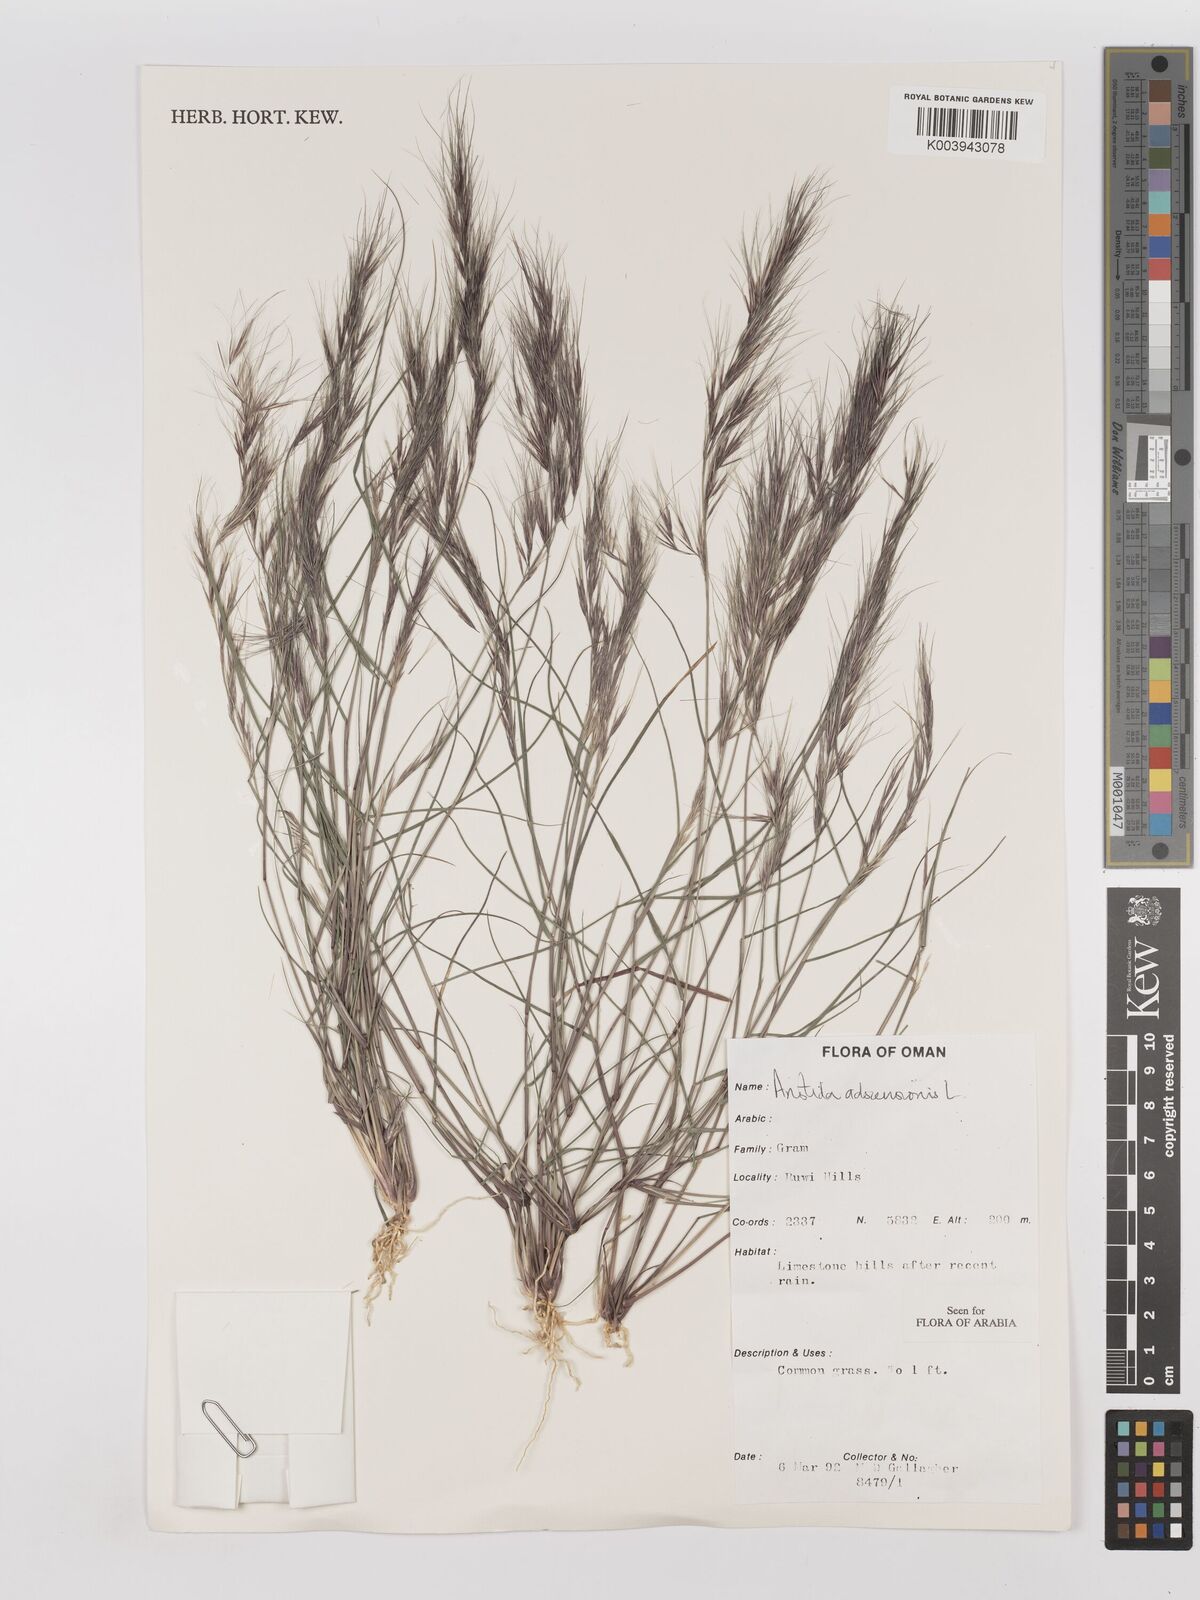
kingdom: Plantae
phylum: Tracheophyta
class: Liliopsida
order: Poales
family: Poaceae
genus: Aristida
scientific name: Aristida adscensionis
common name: Sixweeks threeawn
